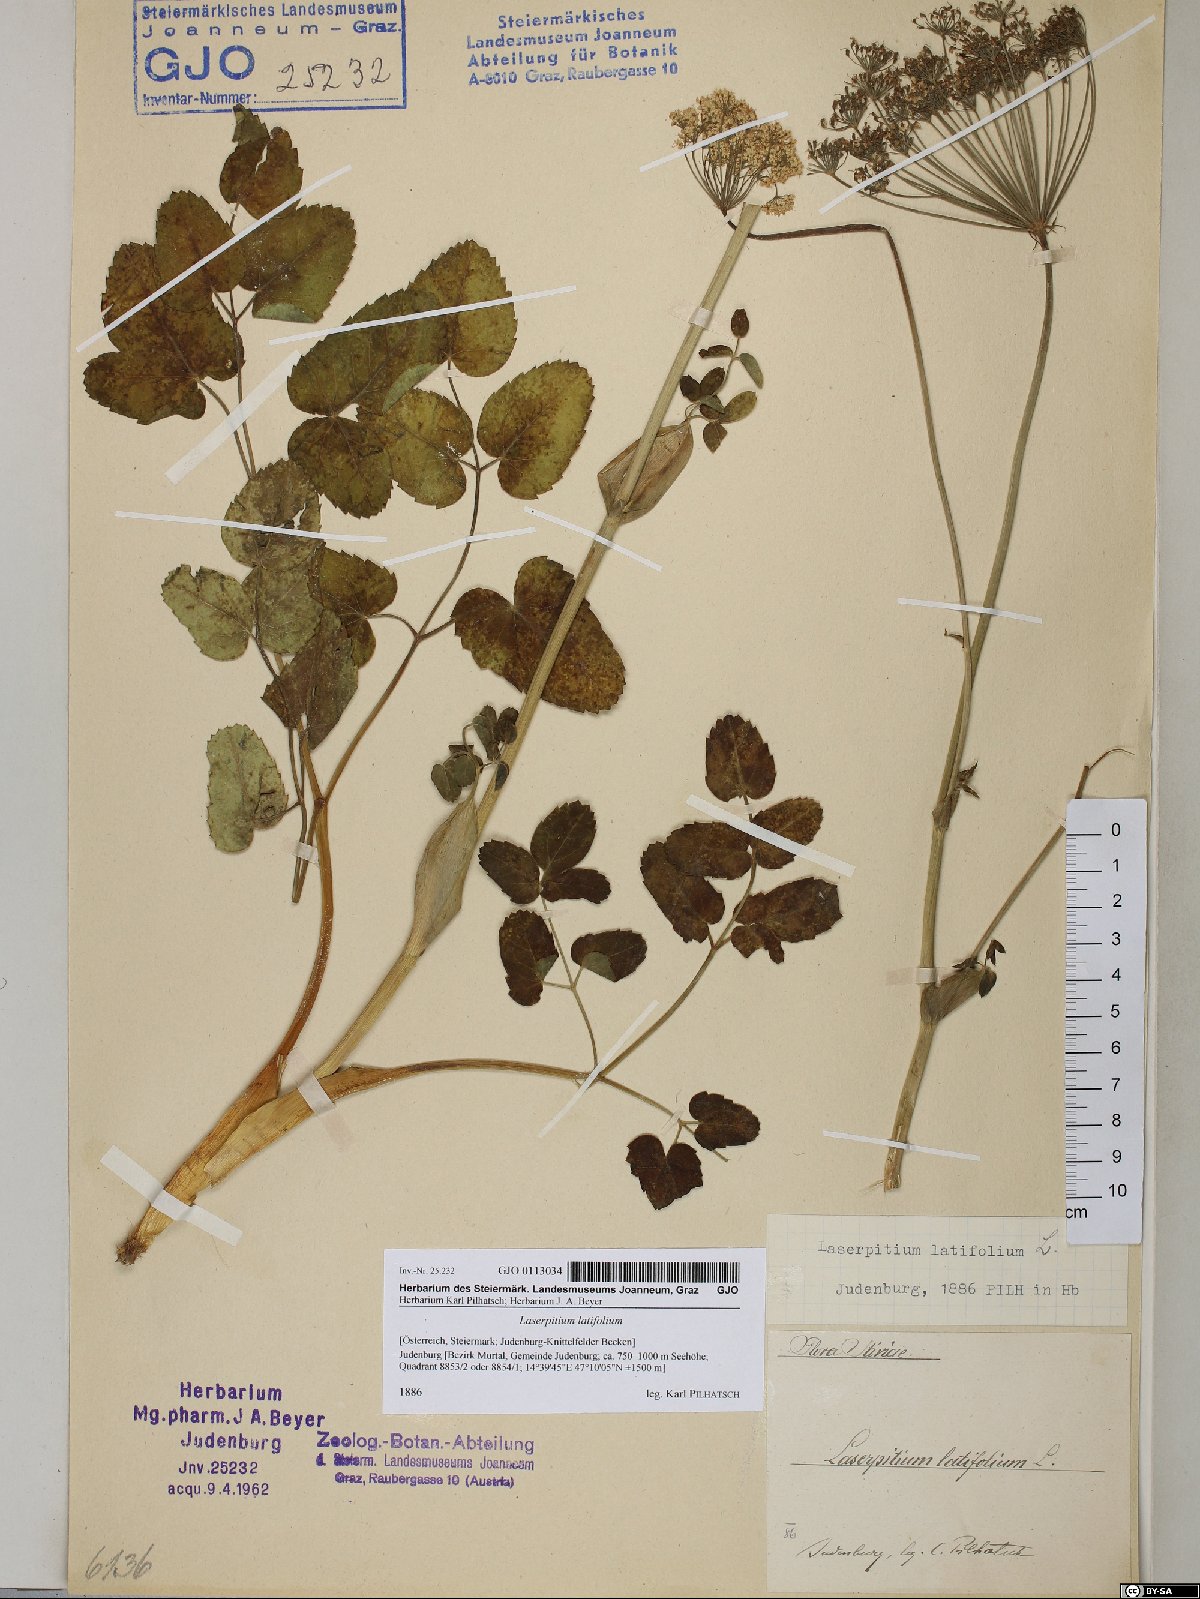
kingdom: Plantae
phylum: Tracheophyta
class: Magnoliopsida
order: Apiales
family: Apiaceae
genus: Laserpitium
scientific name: Laserpitium latifolium
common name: Broadleaf sermountain
